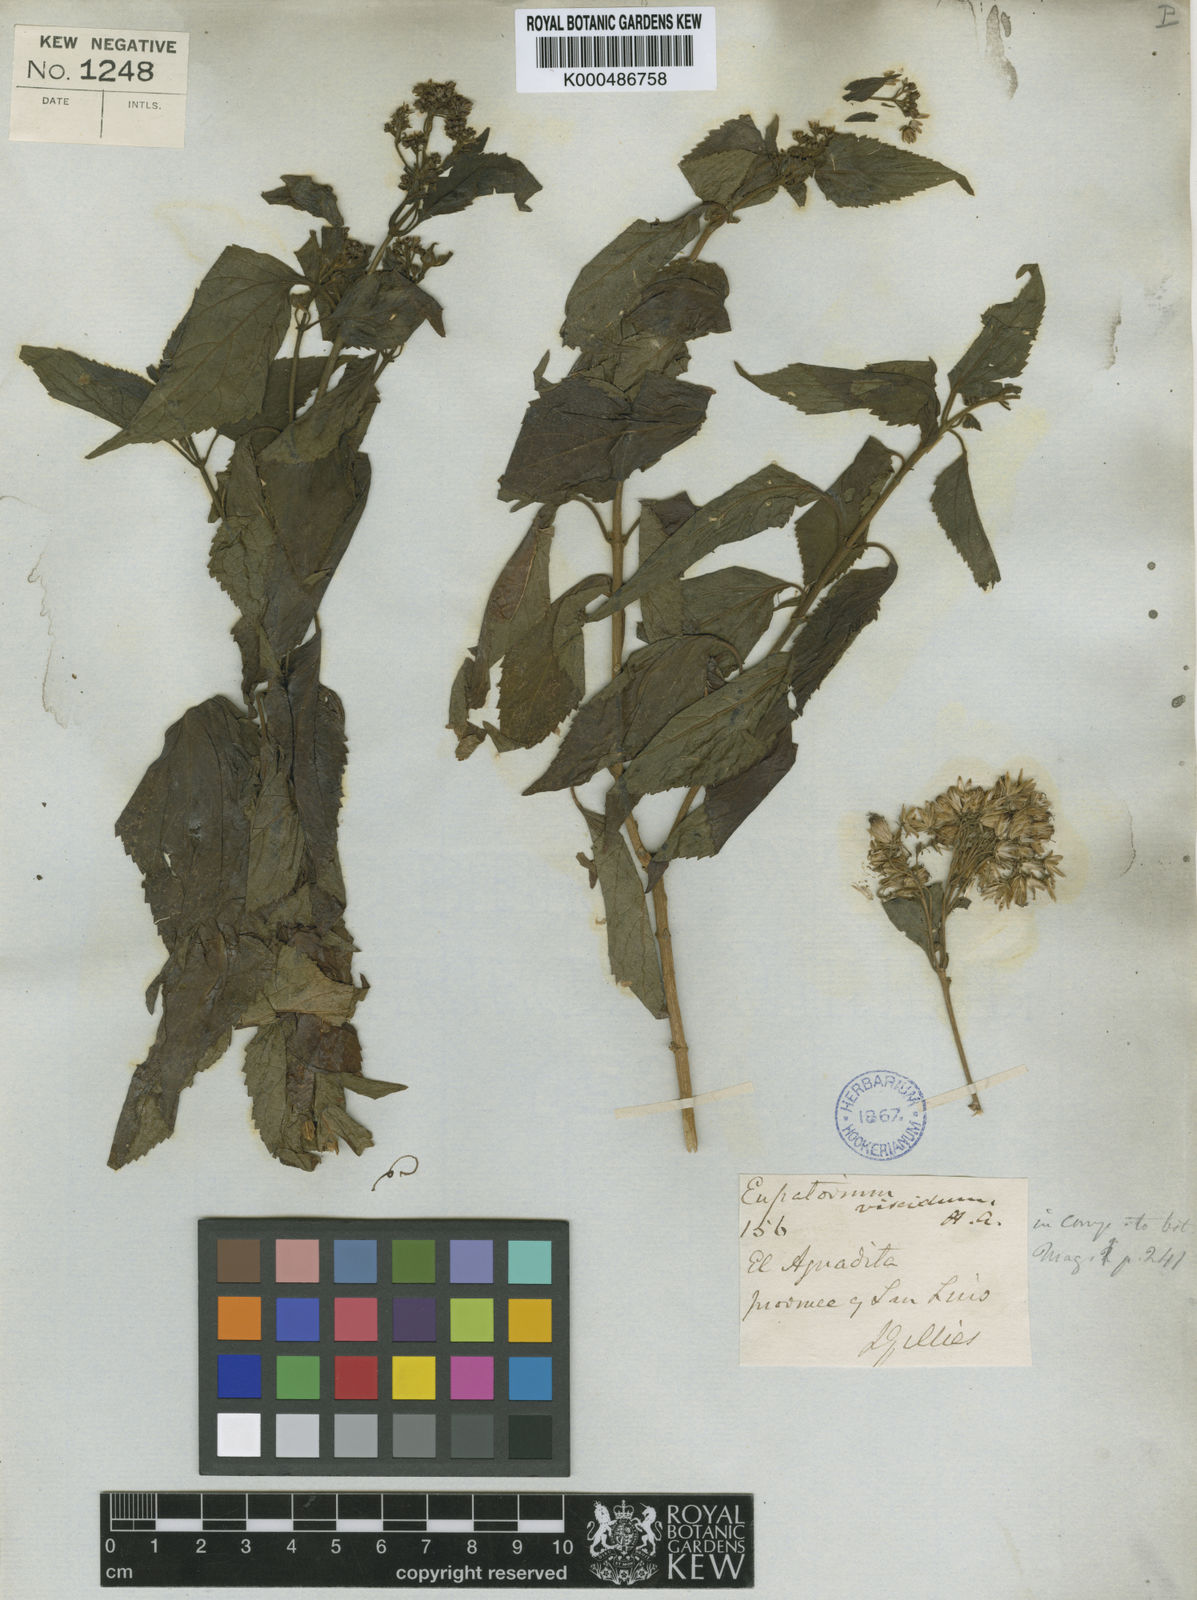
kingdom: Plantae
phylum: Tracheophyta
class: Magnoliopsida
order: Asterales
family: Asteraceae
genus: Lorentzianthus
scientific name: Lorentzianthus viscidus
